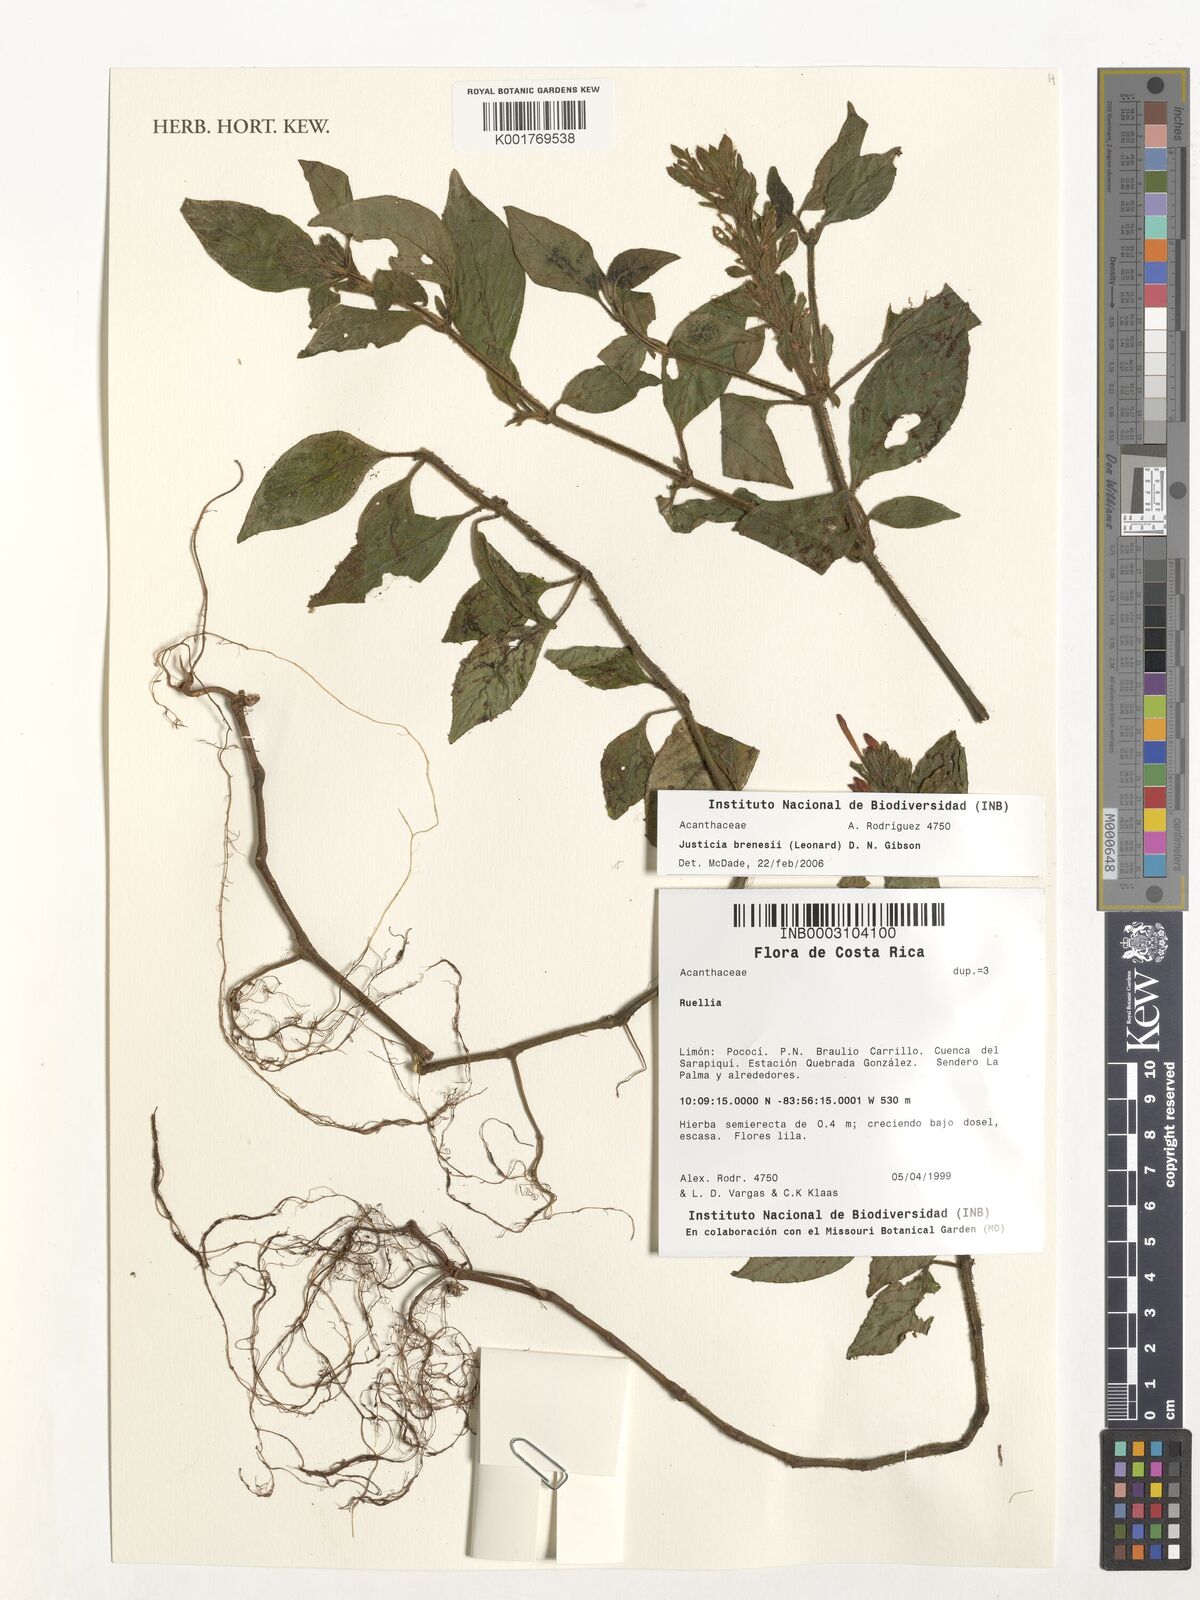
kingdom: Plantae
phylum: Tracheophyta
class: Magnoliopsida
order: Lamiales
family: Acanthaceae
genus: Justicia
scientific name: Justicia brenesii
